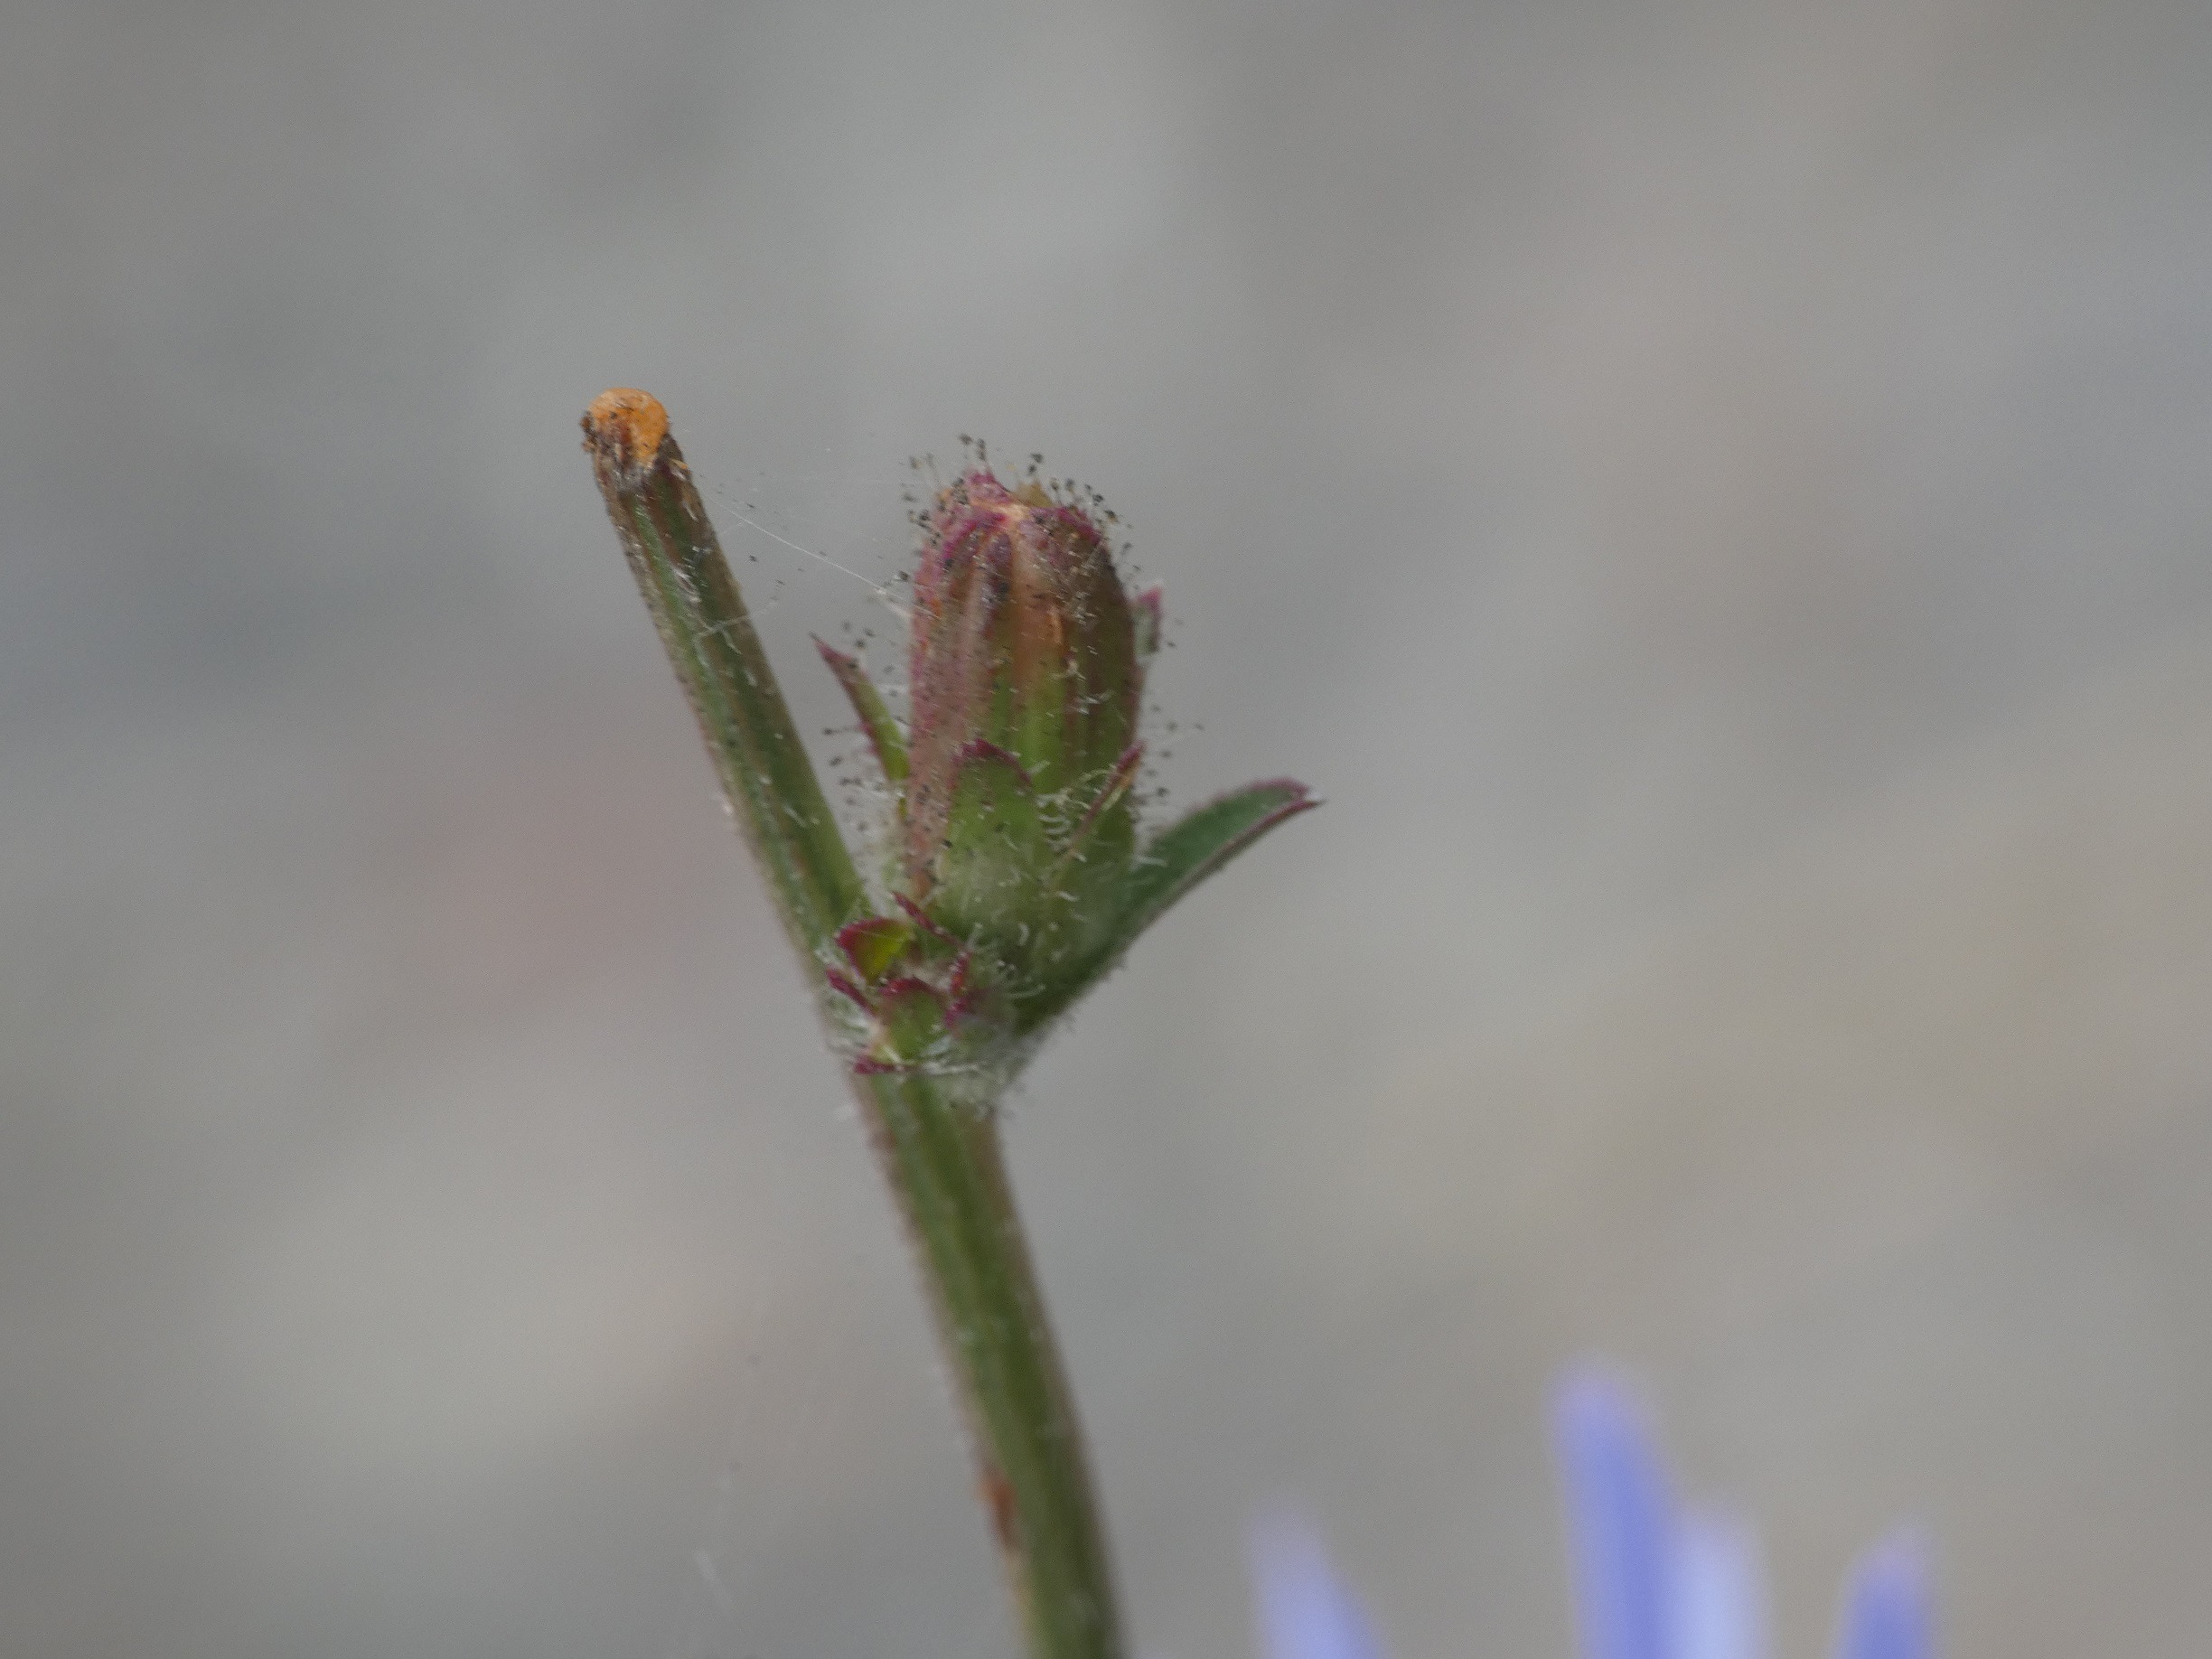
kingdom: Plantae
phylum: Tracheophyta
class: Magnoliopsida
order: Asterales
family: Asteraceae
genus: Cichorium
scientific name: Cichorium intybus
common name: Cikorie
